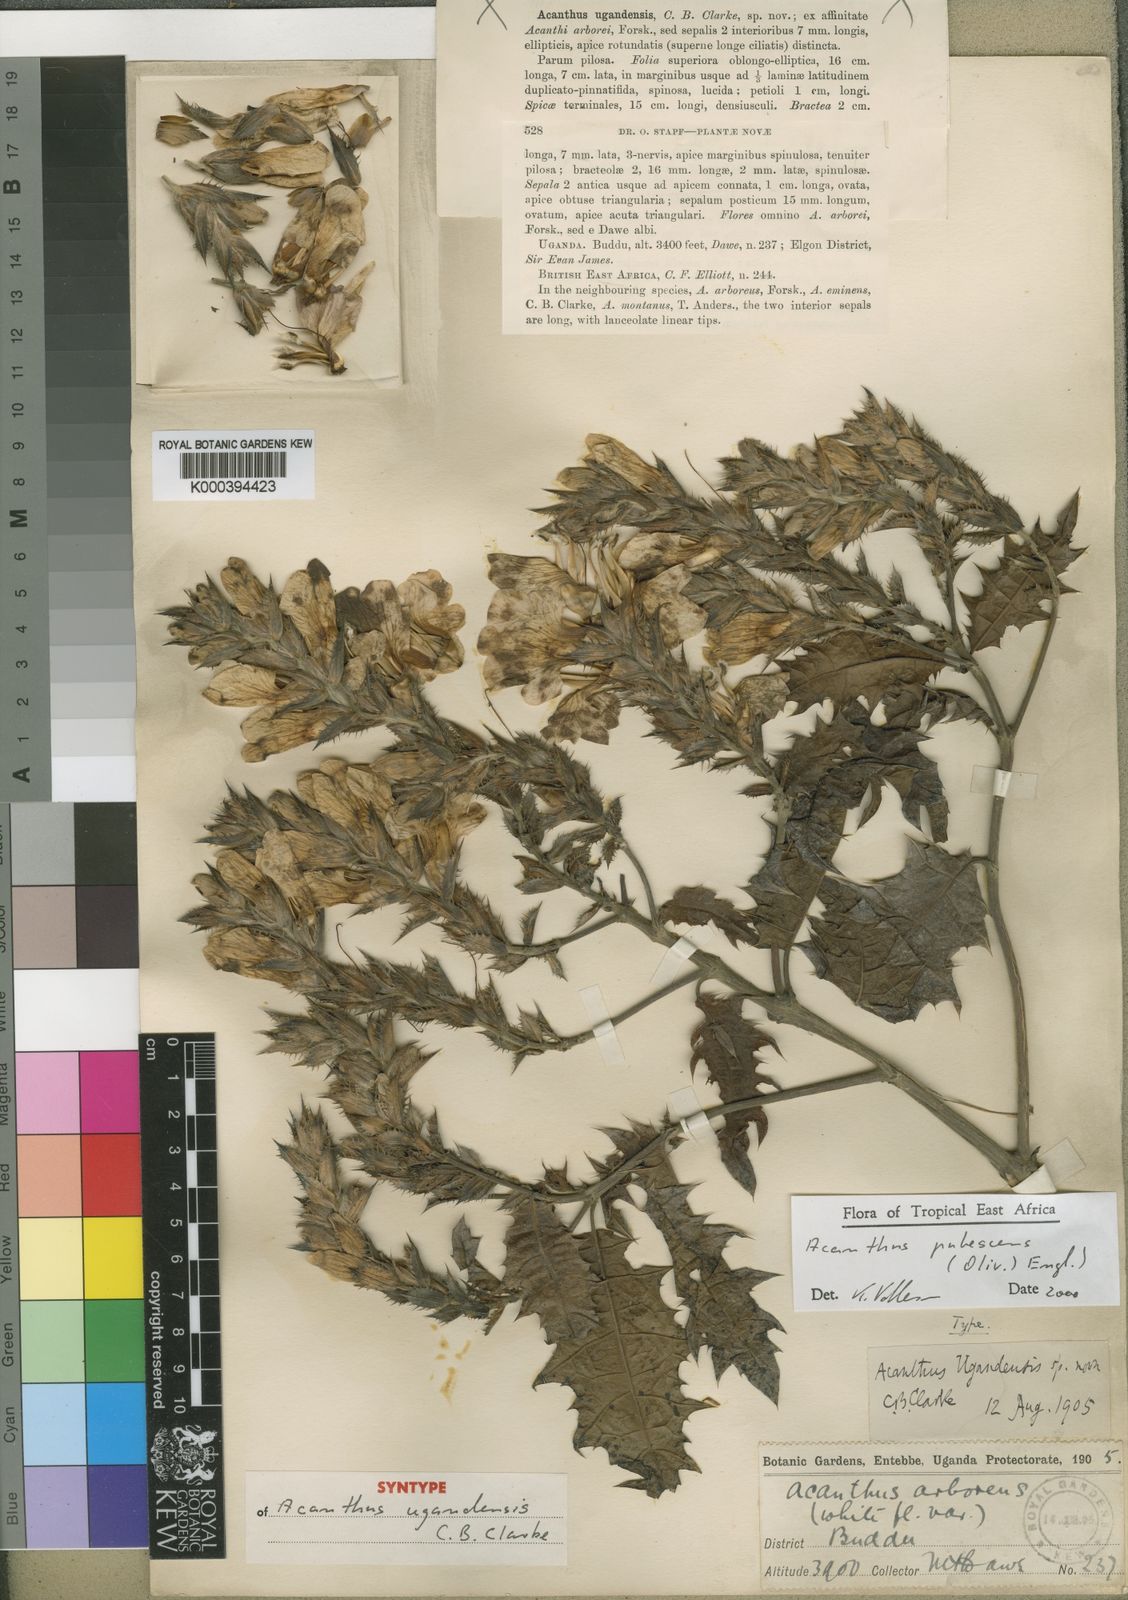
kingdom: Plantae
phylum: Tracheophyta
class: Magnoliopsida
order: Lamiales
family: Acanthaceae
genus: Acanthus
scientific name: Acanthus pubescens
